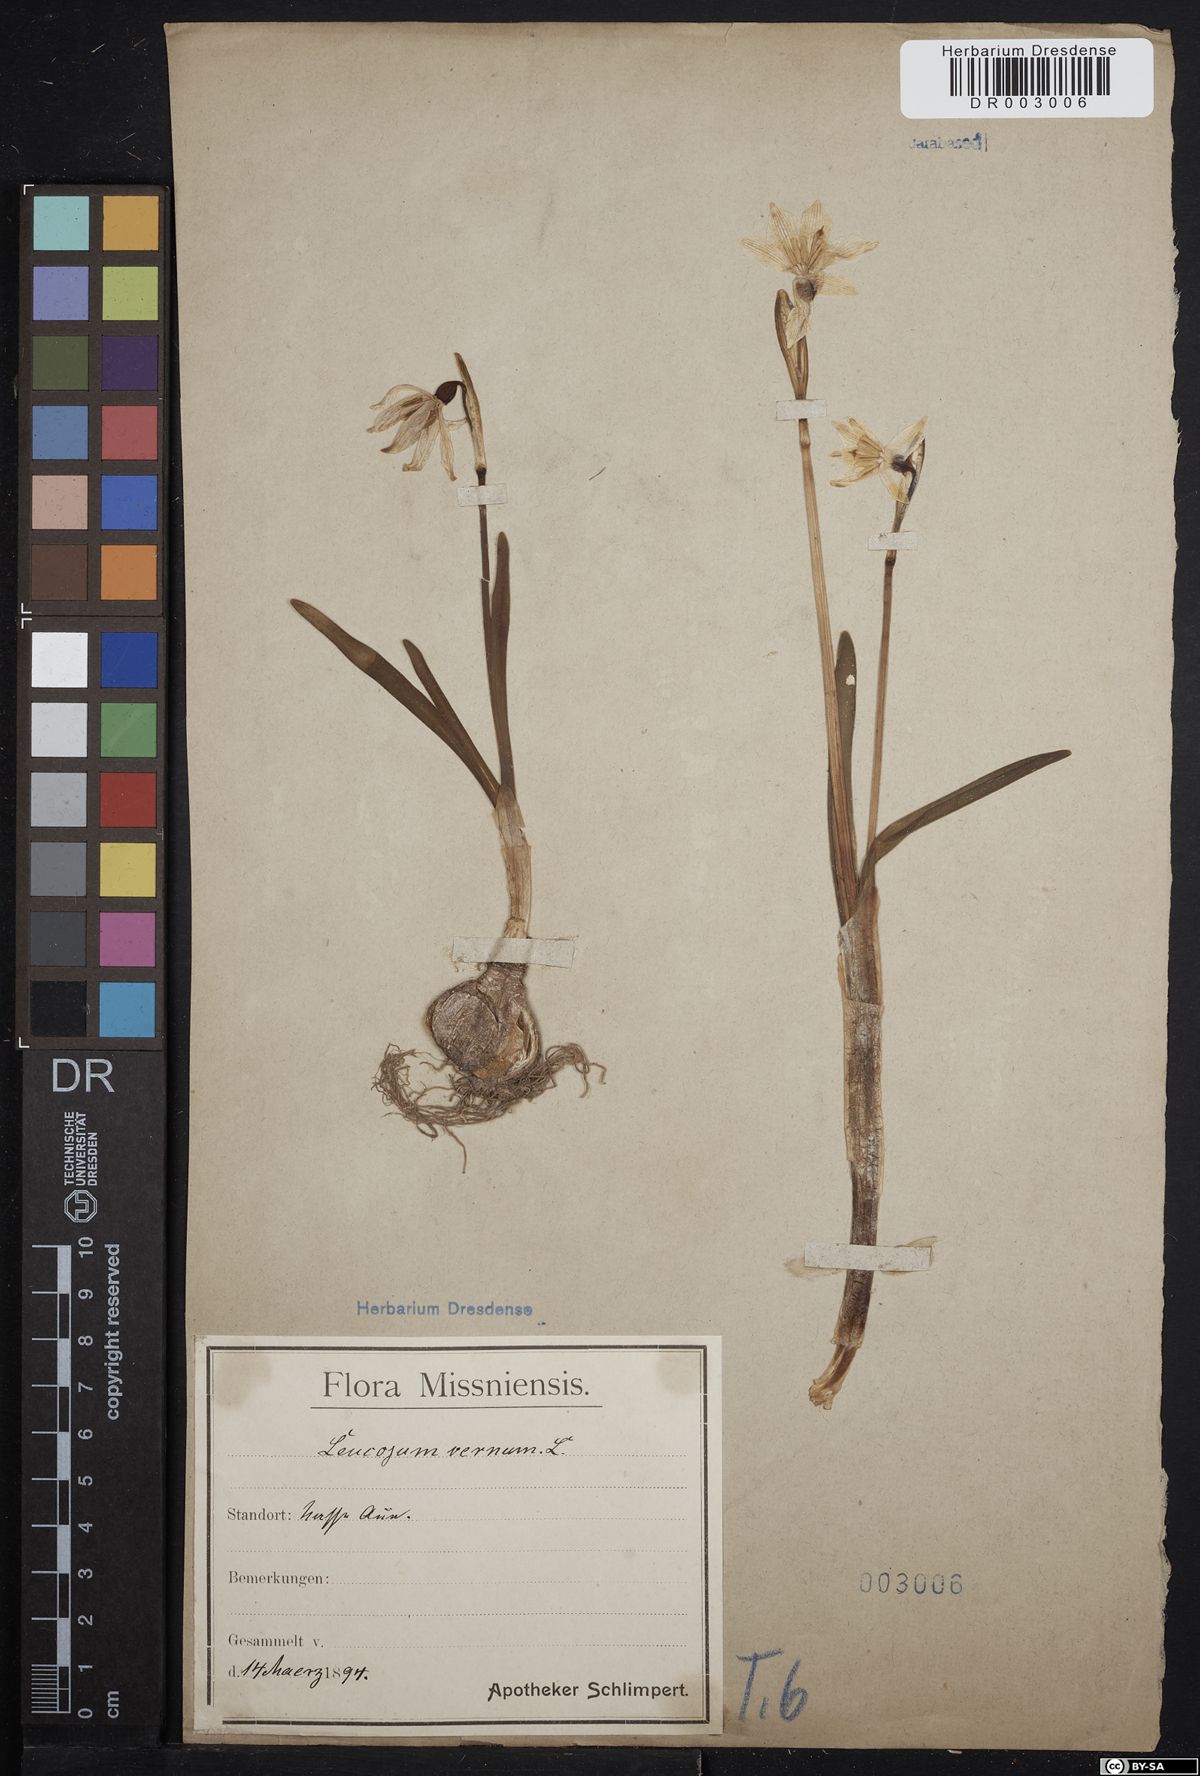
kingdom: Plantae
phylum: Tracheophyta
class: Liliopsida
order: Asparagales
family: Amaryllidaceae
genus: Leucojum
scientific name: Leucojum vernum
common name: Spring snowflake
